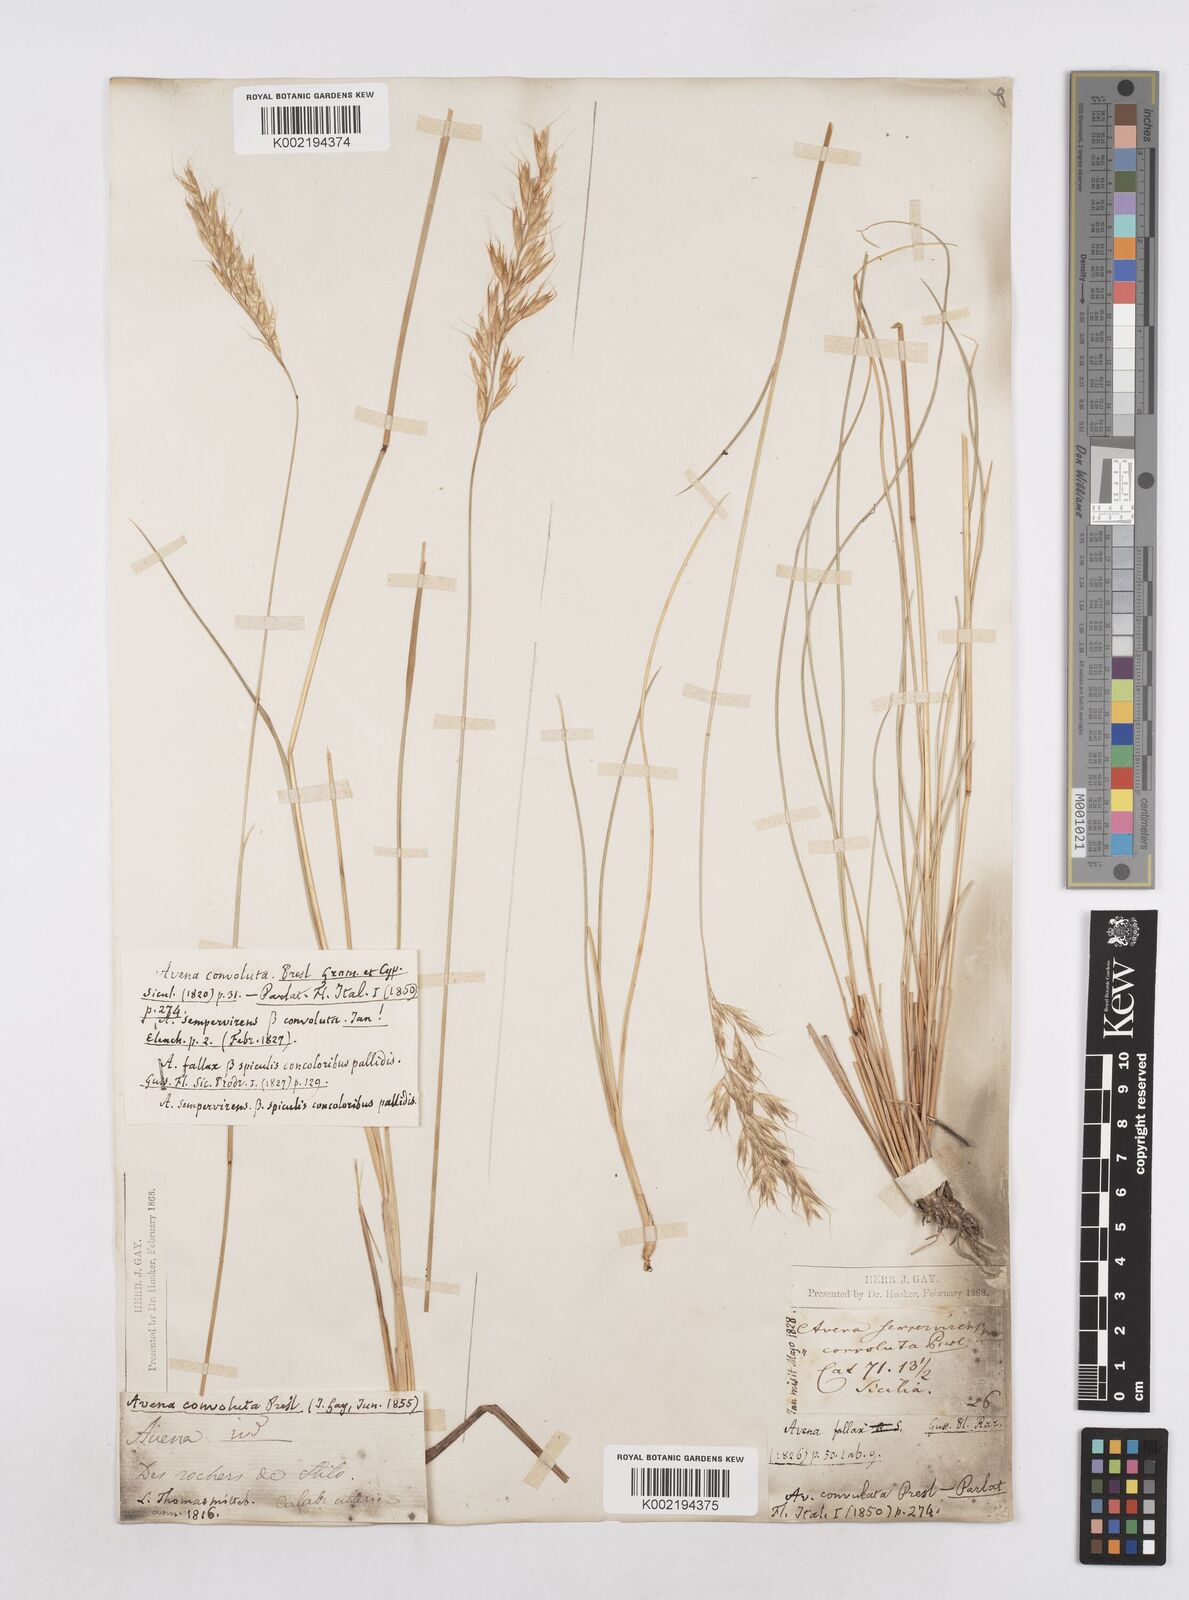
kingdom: Plantae
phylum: Tracheophyta
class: Liliopsida
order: Poales
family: Poaceae
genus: Helictotrichon
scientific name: Helictotrichon parlatorei
